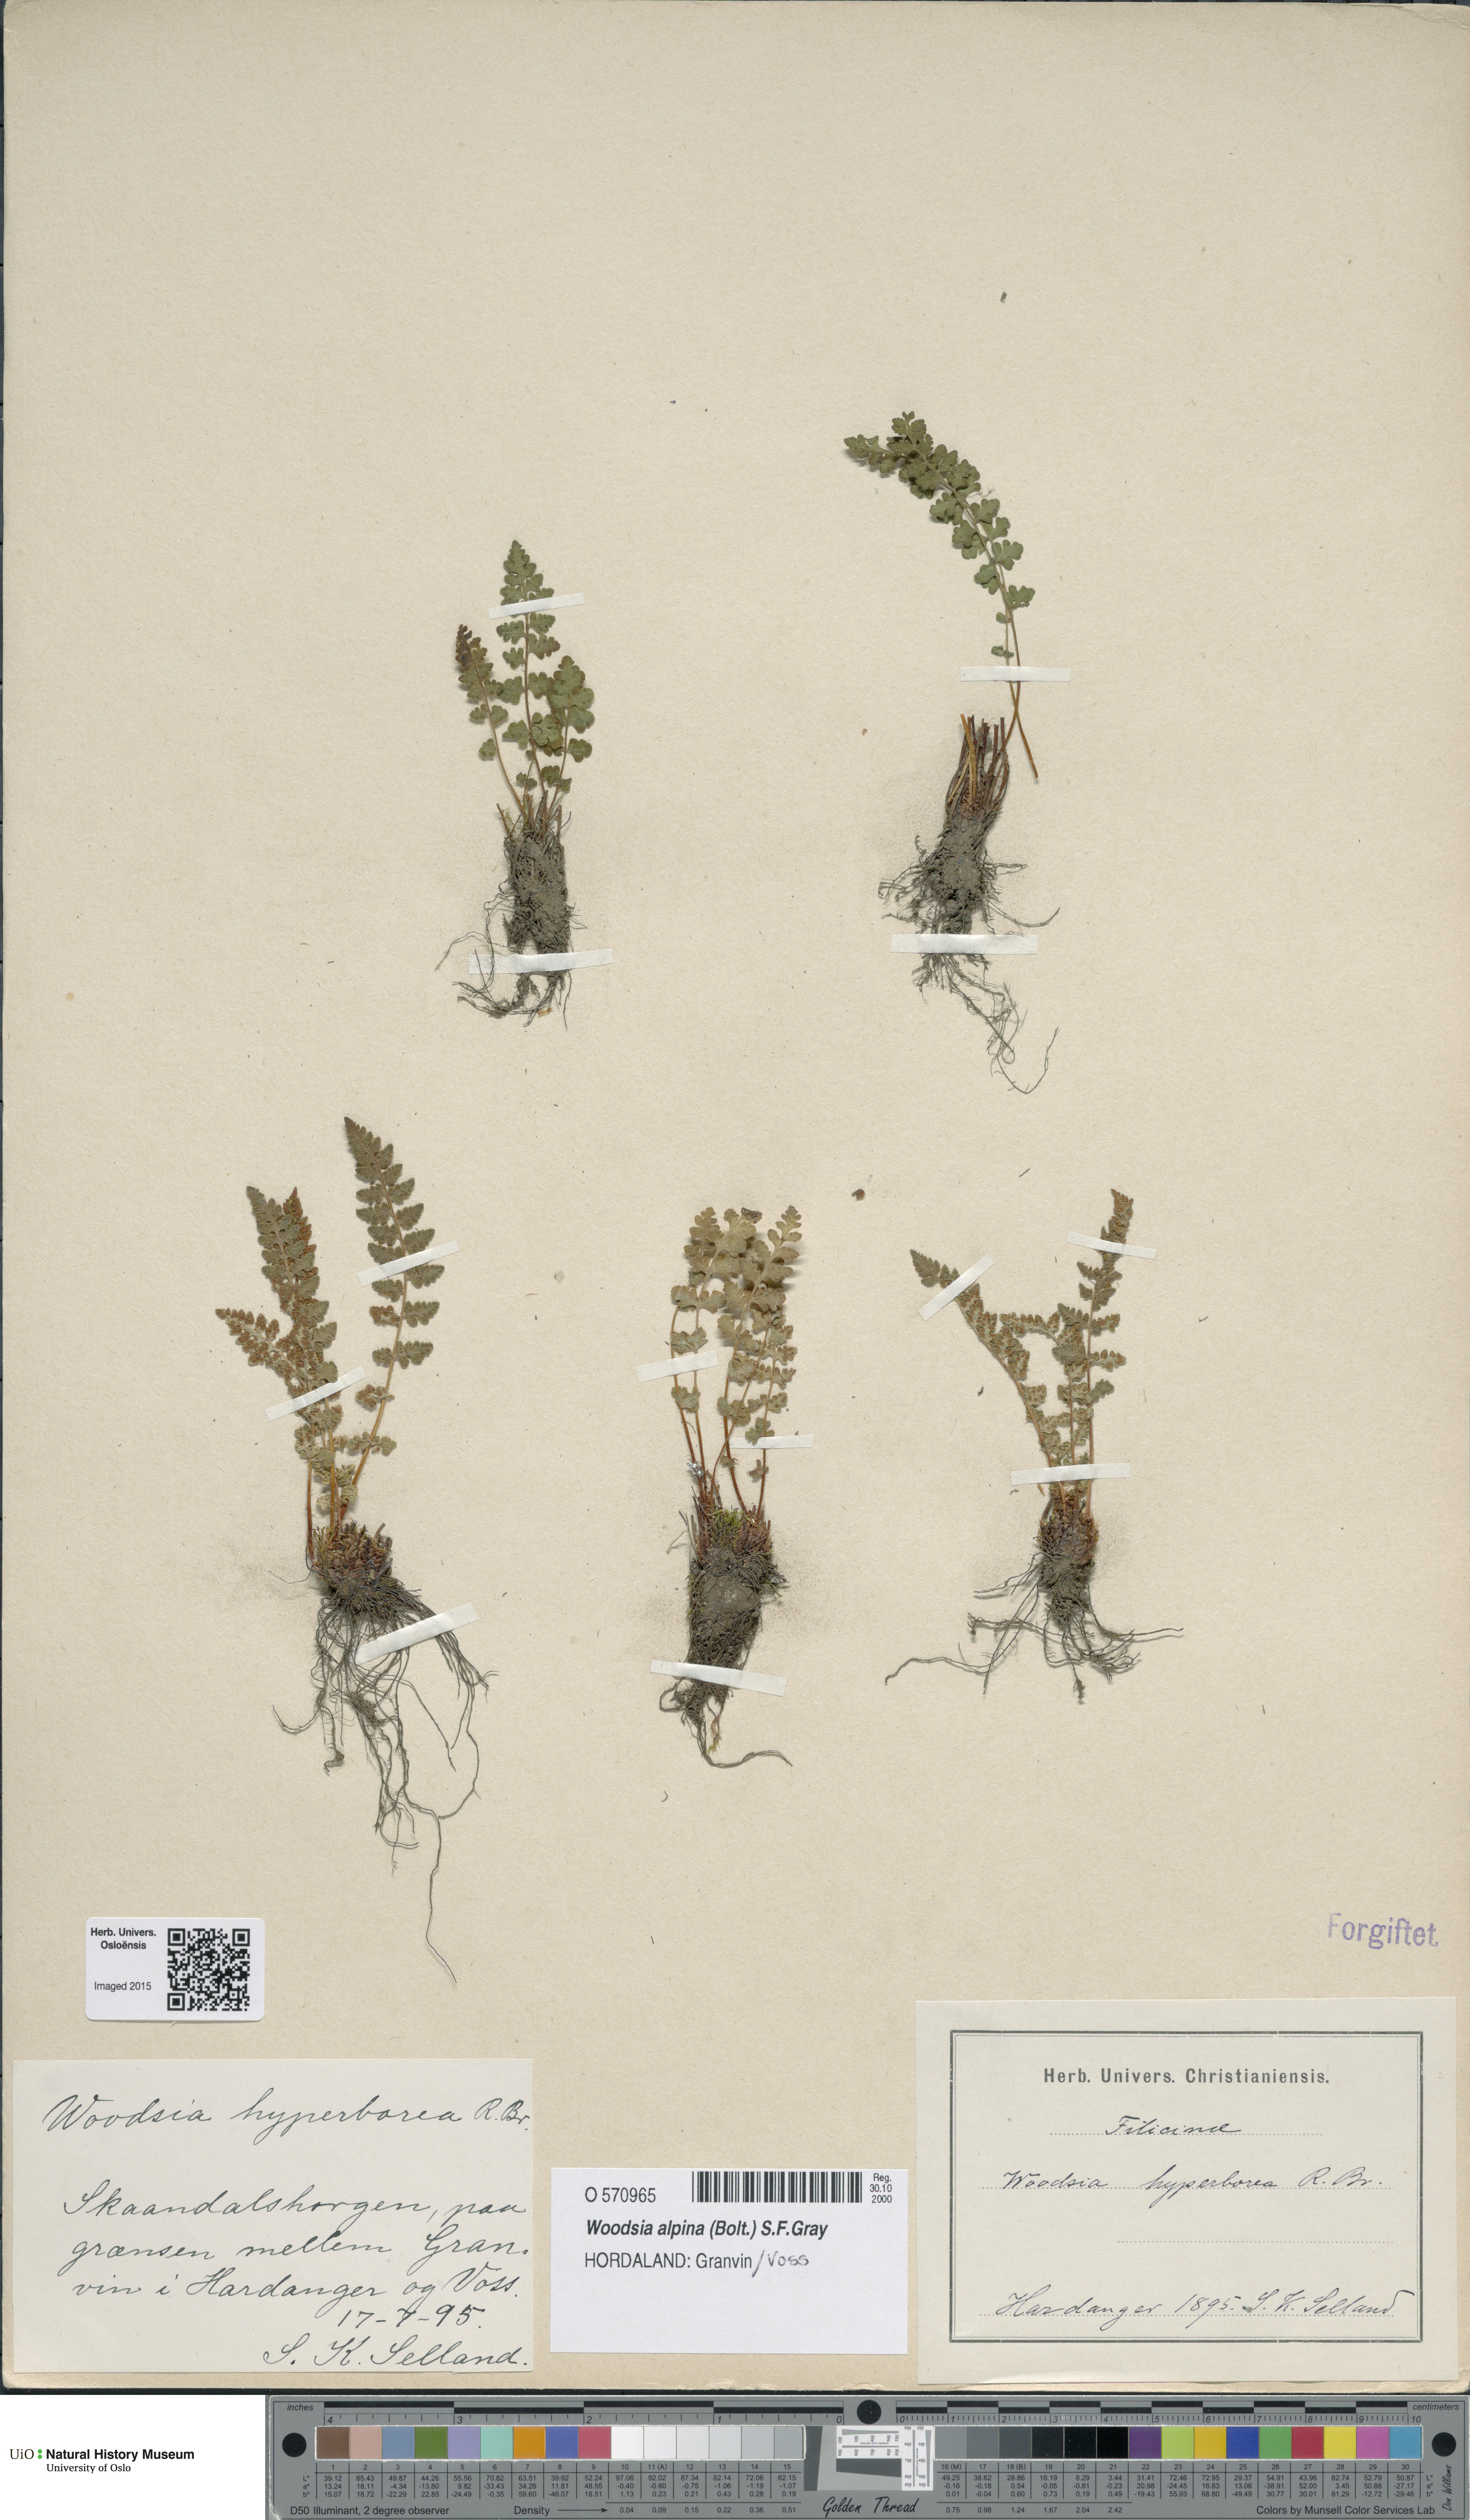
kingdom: Plantae
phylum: Tracheophyta
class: Polypodiopsida
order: Polypodiales
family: Woodsiaceae
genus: Woodsia
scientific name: Woodsia alpina
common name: Alpine woodsia
